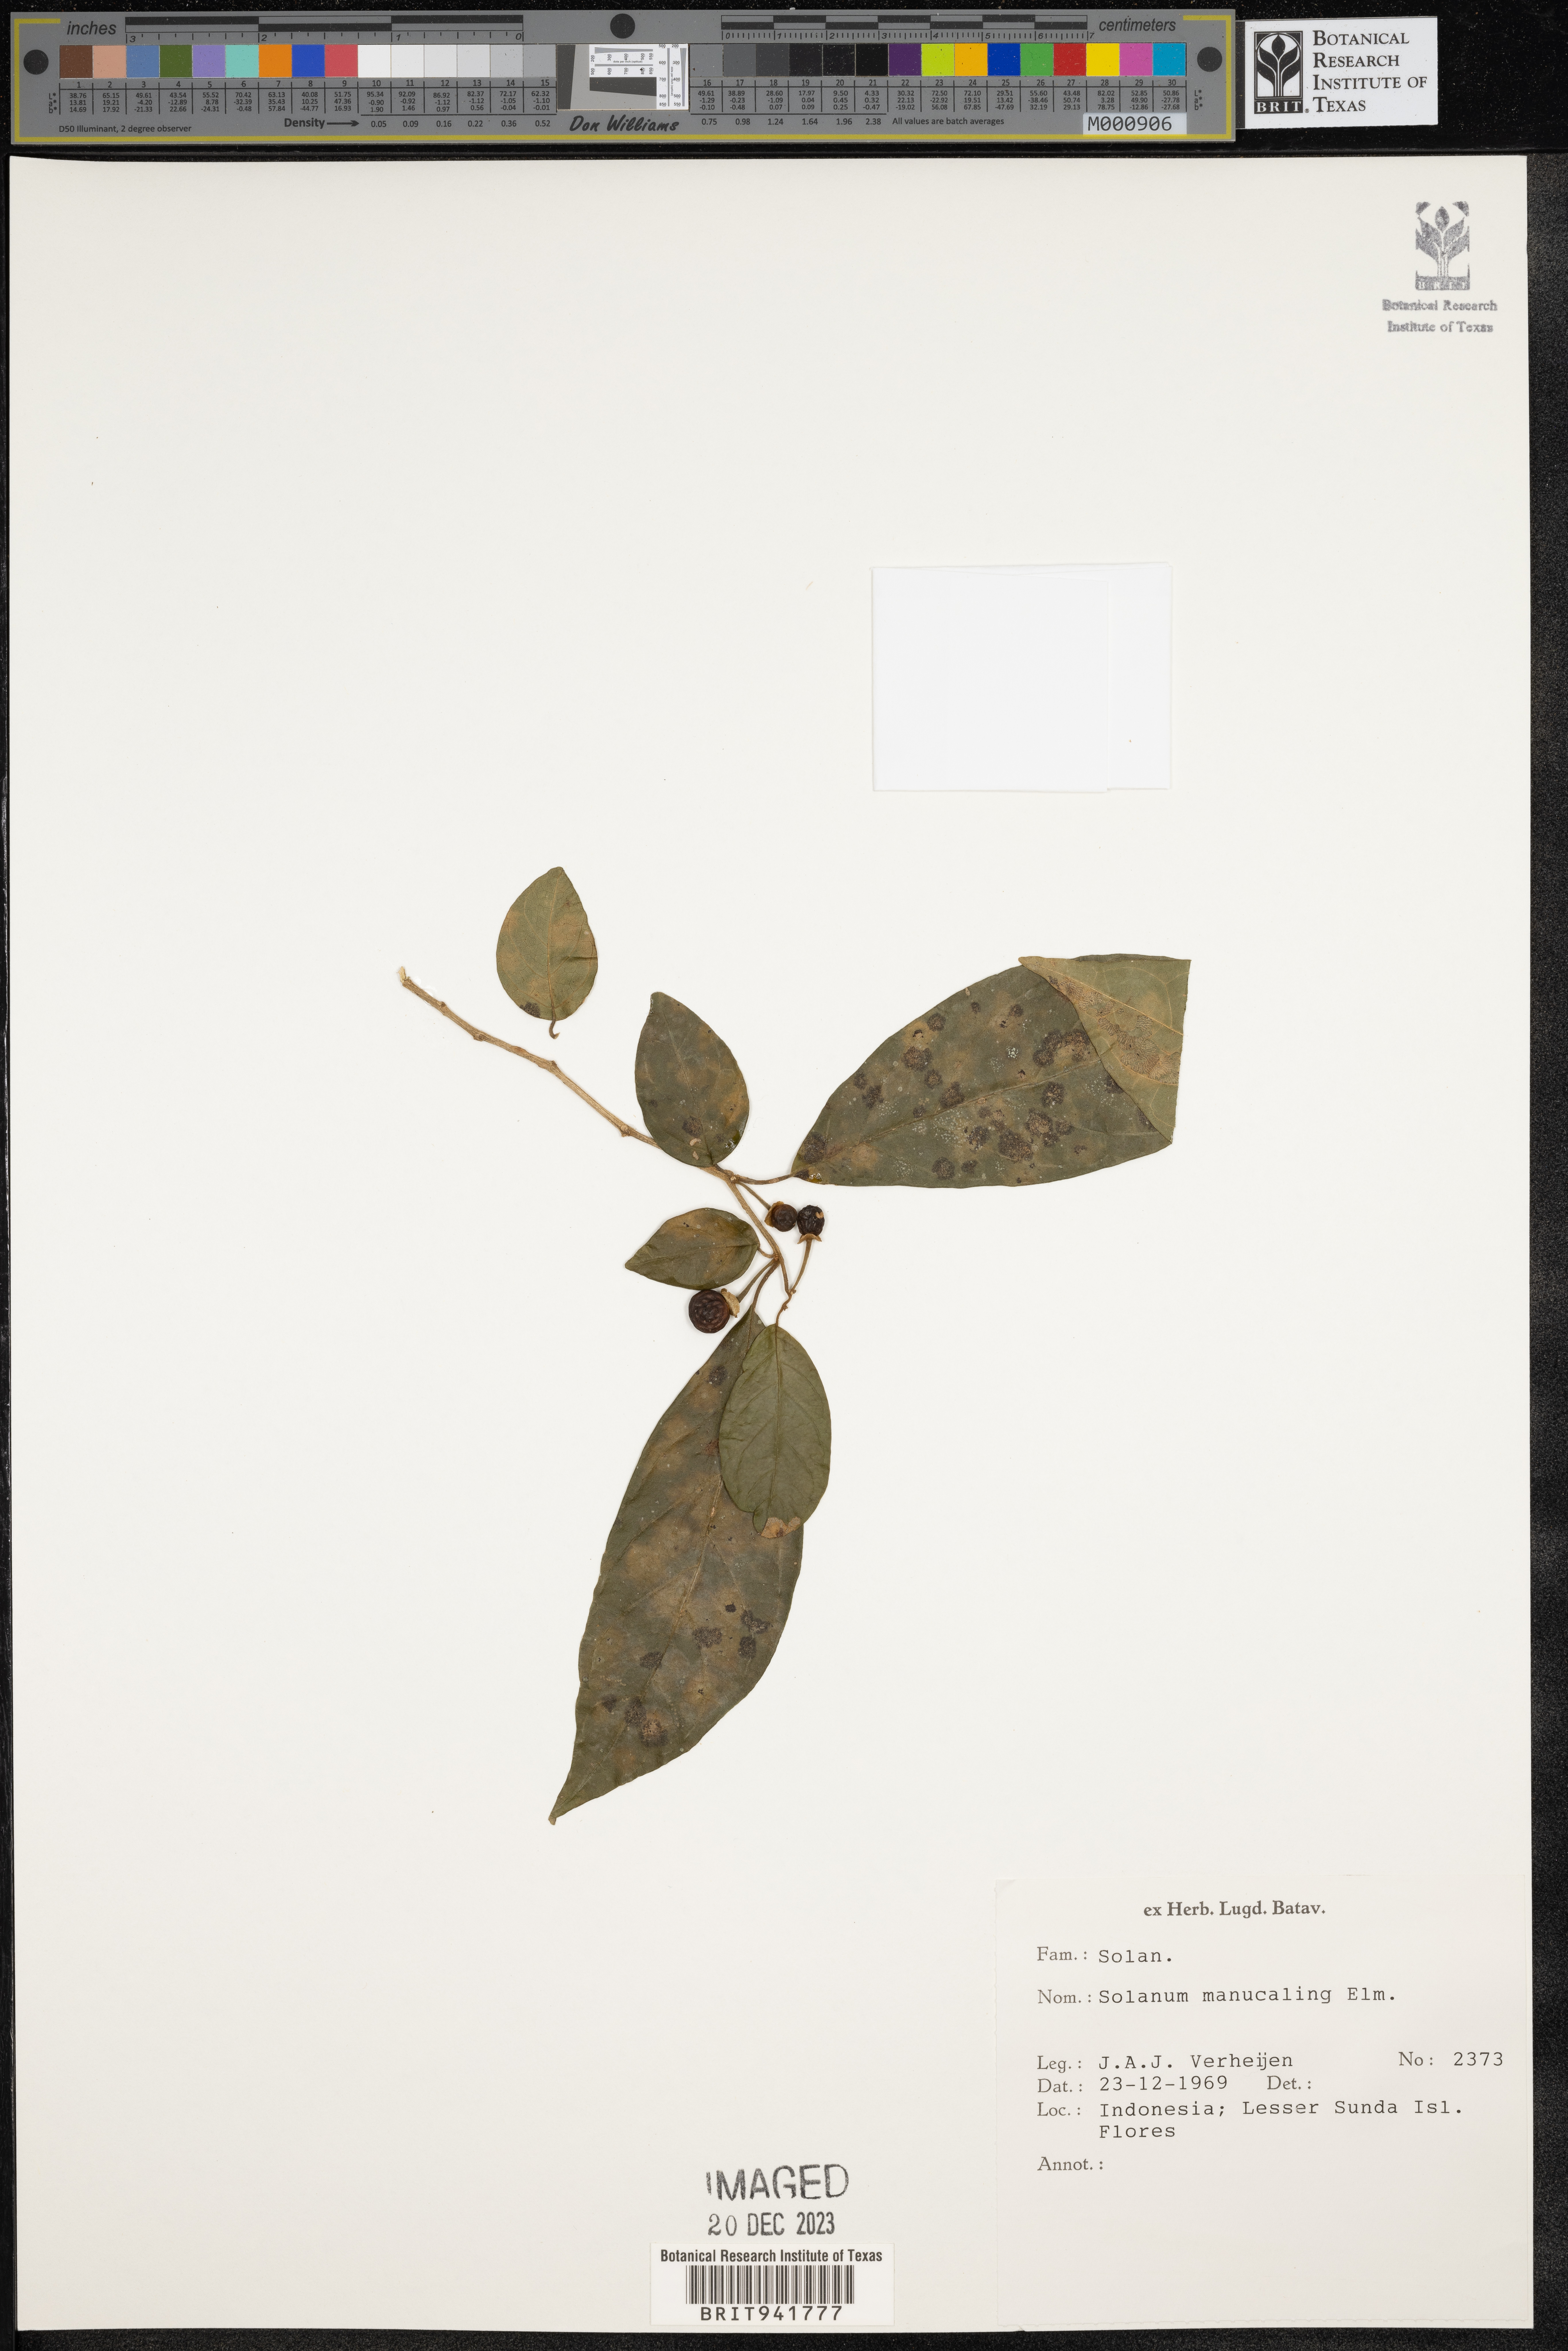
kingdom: Plantae
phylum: Tracheophyta
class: Magnoliopsida
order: Solanales
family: Solanaceae
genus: Solanum
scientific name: Solanum
